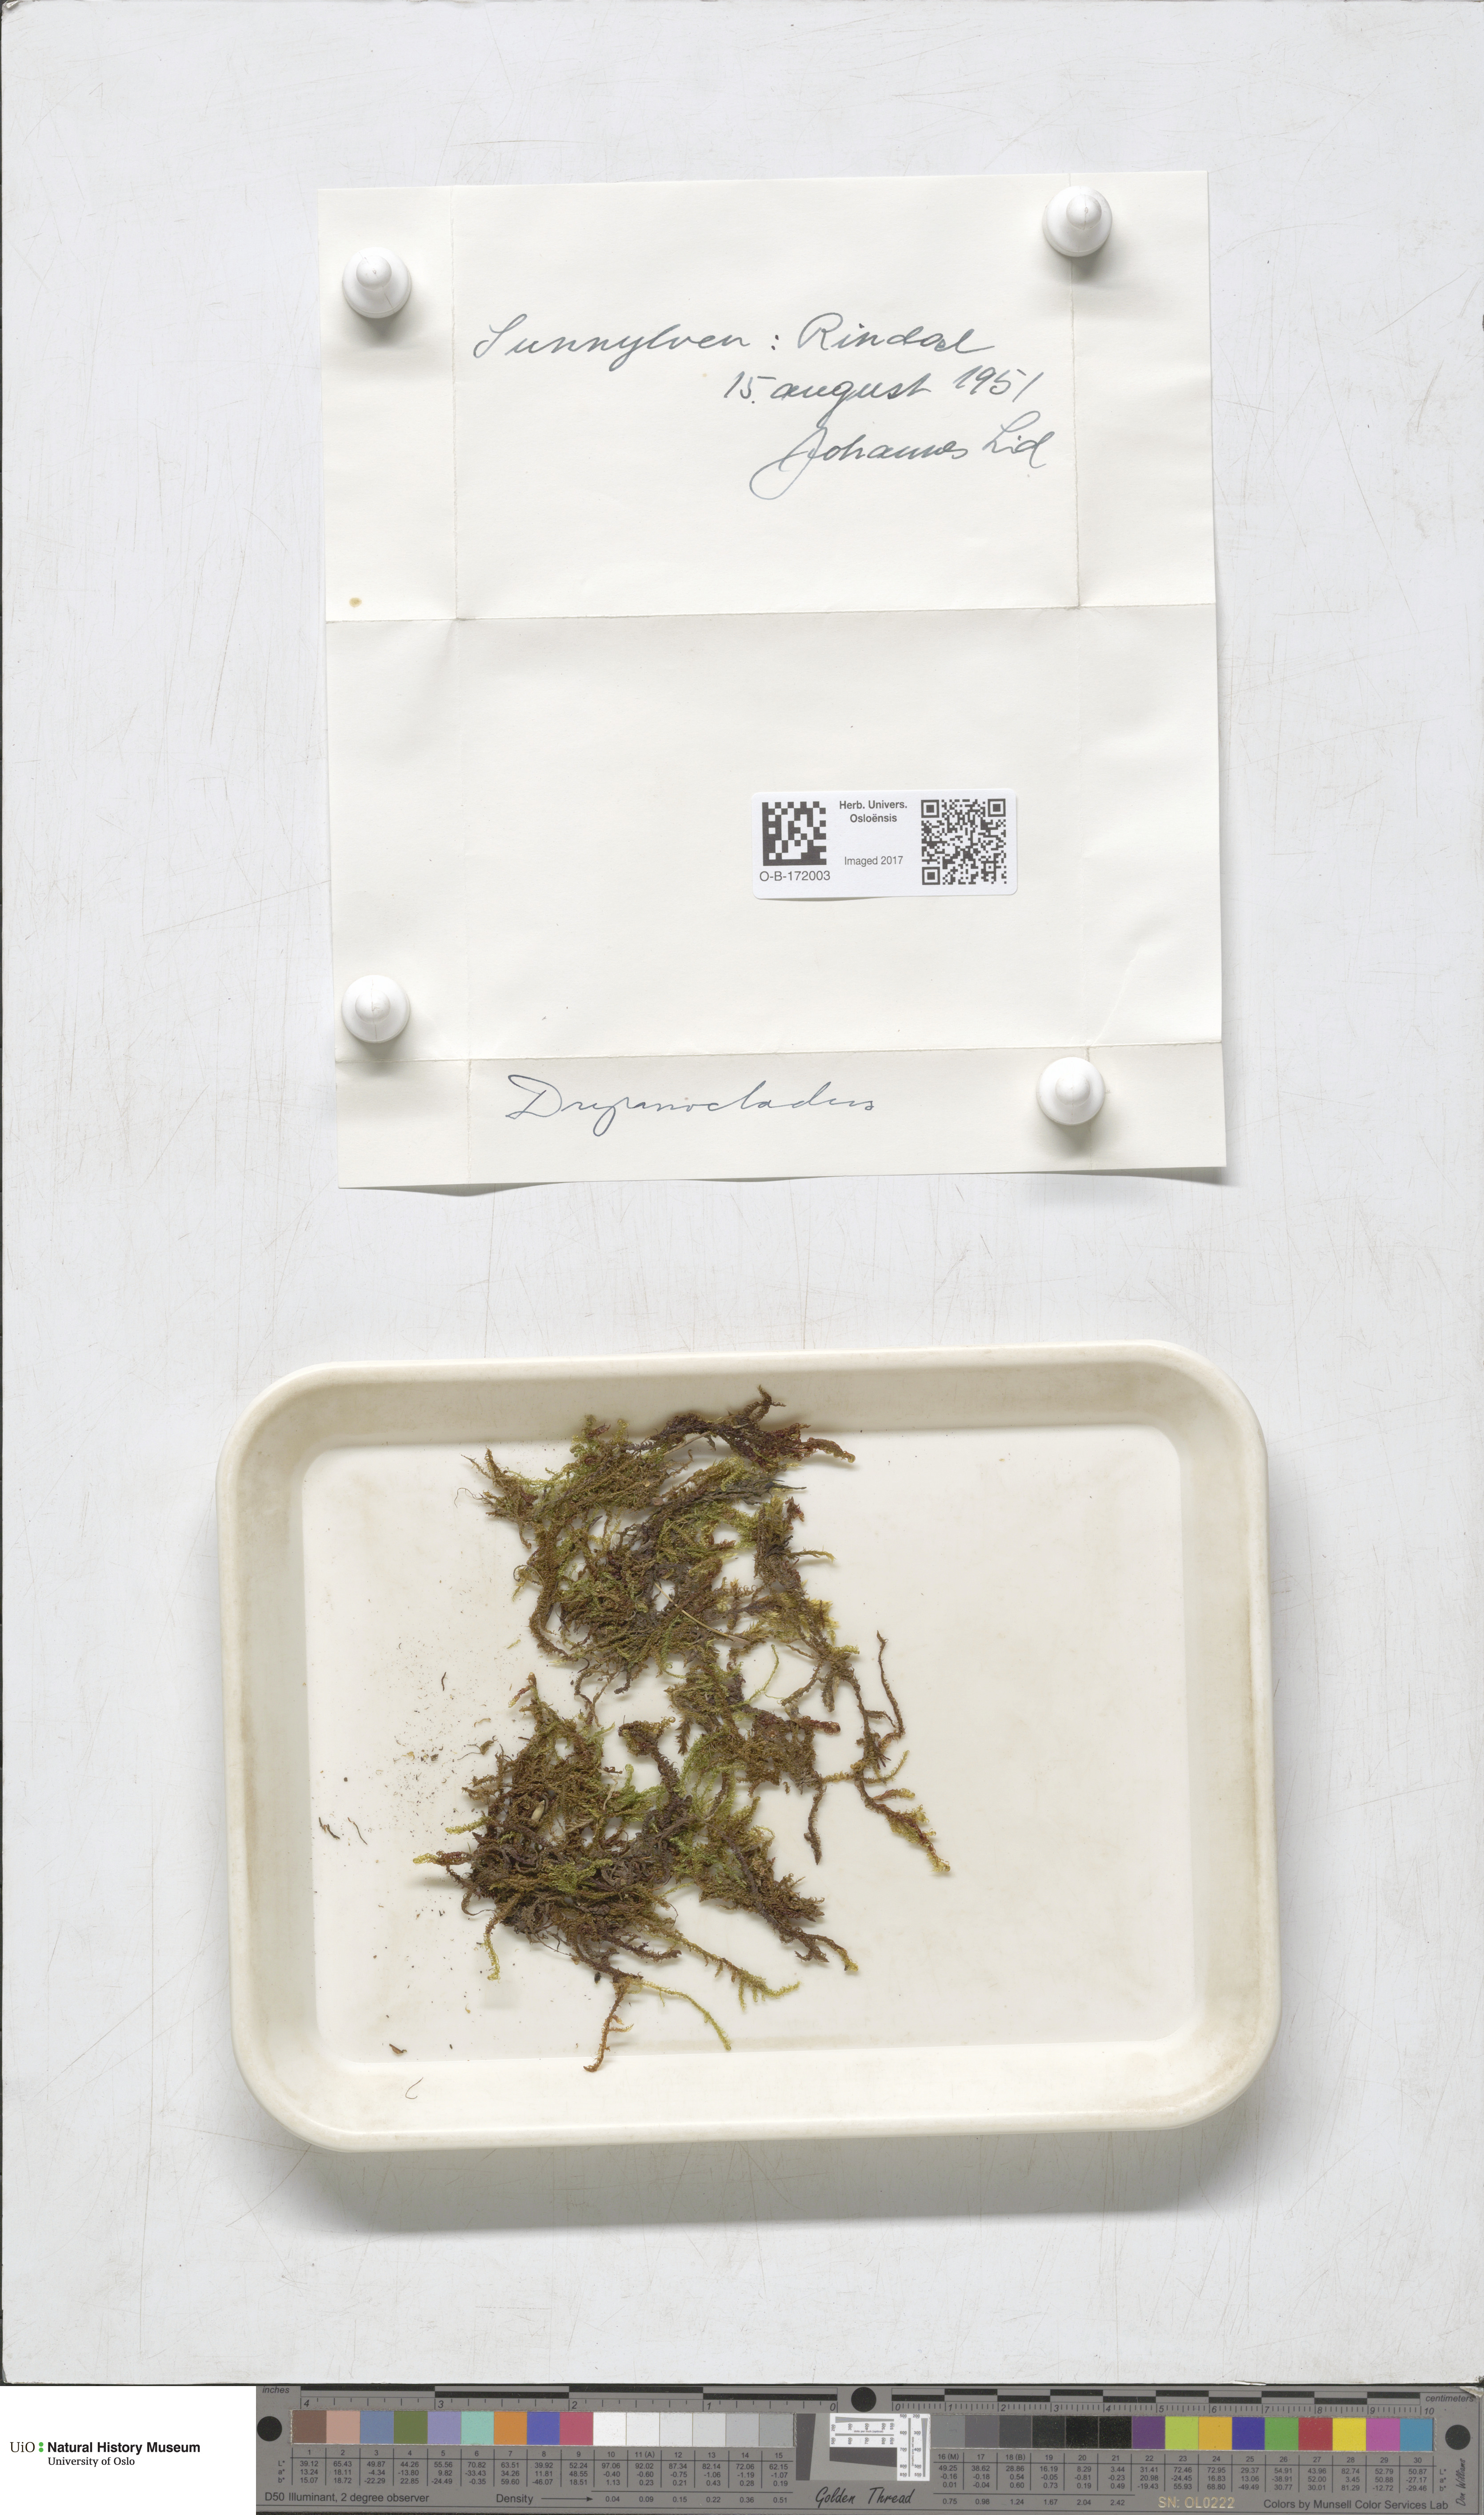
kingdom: Plantae
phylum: Bryophyta
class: Bryopsida
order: Hypnales
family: Amblystegiaceae
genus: Drepanocladus
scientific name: Drepanocladus sordidus
